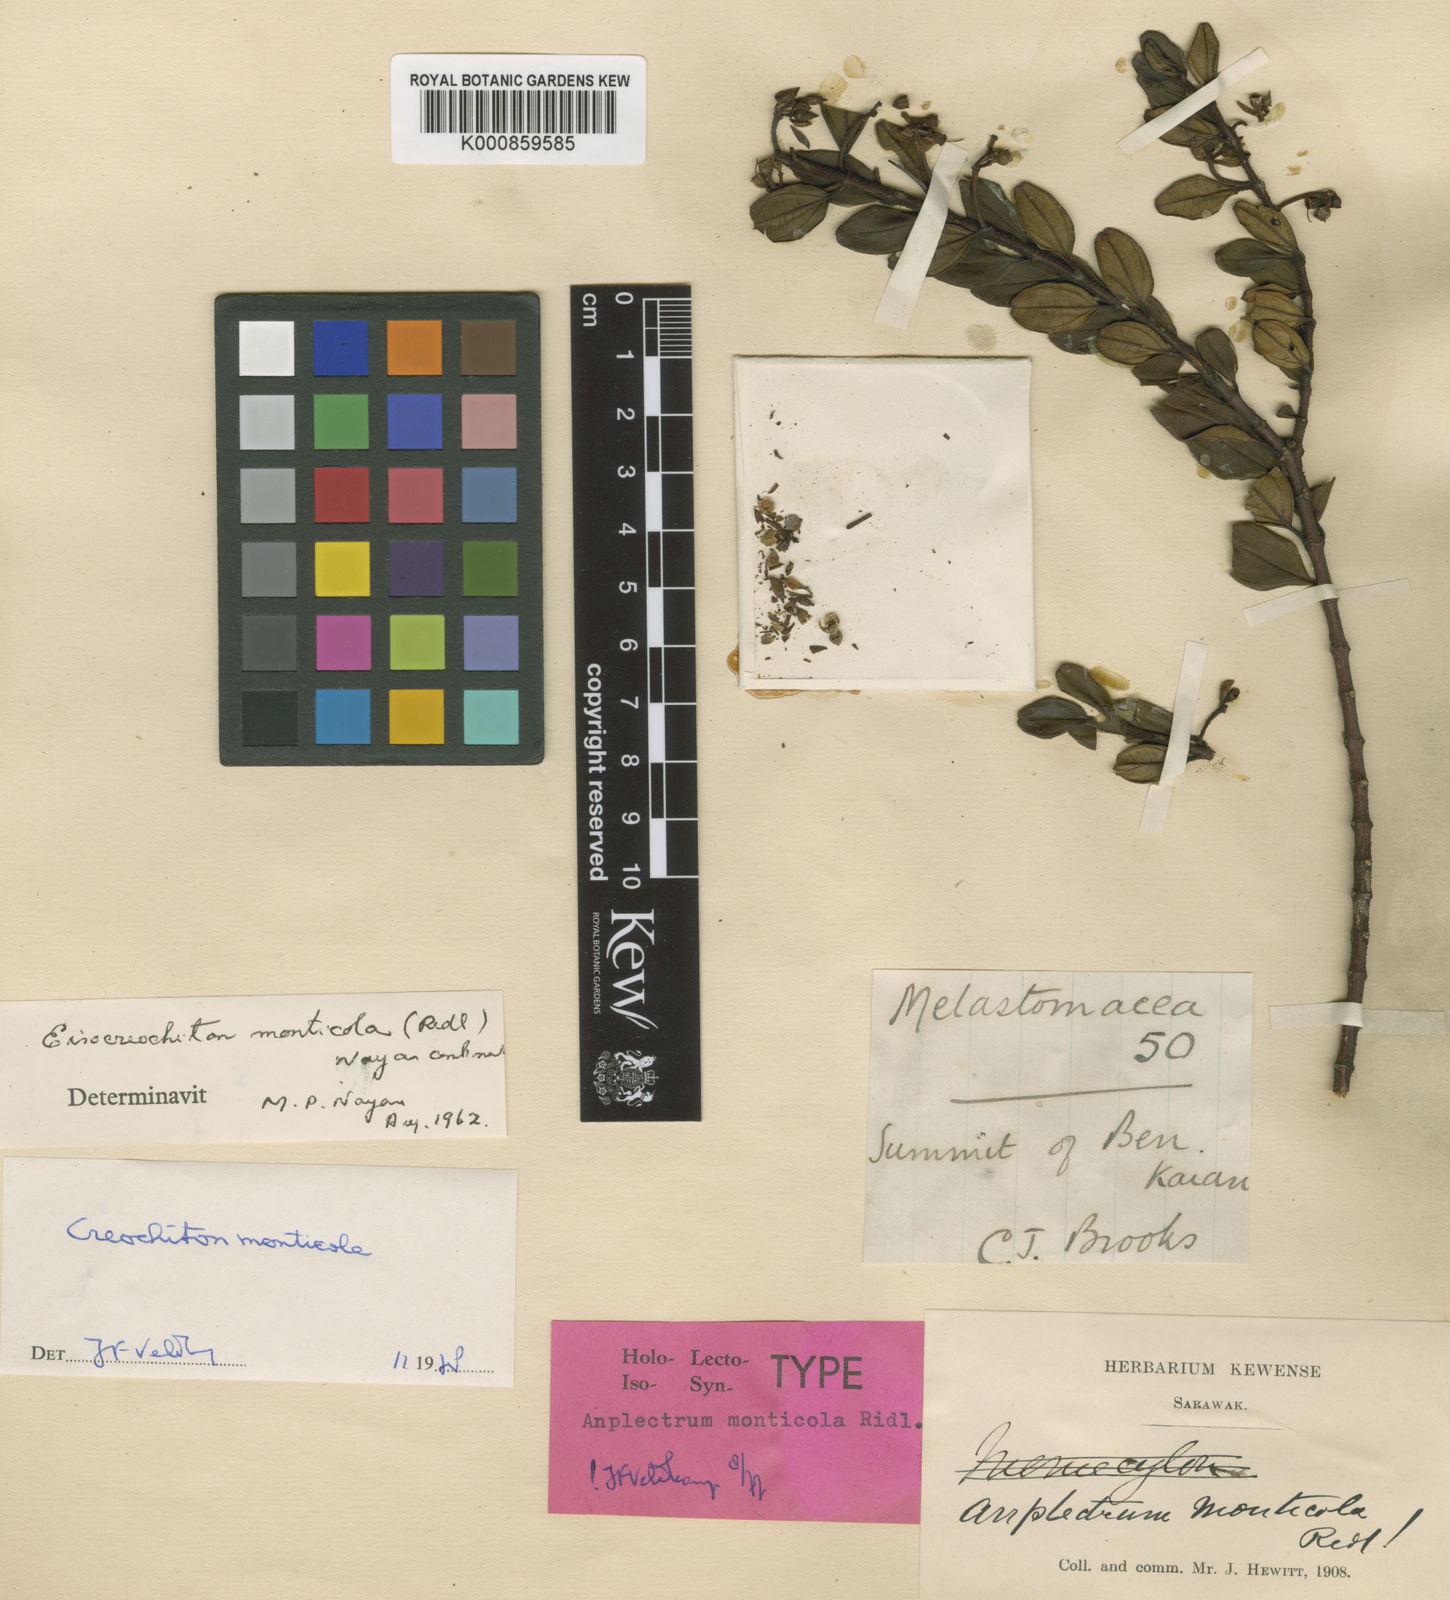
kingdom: Plantae
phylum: Tracheophyta
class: Magnoliopsida
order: Myrtales
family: Melastomataceae
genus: Creochiton
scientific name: Creochiton monticola
